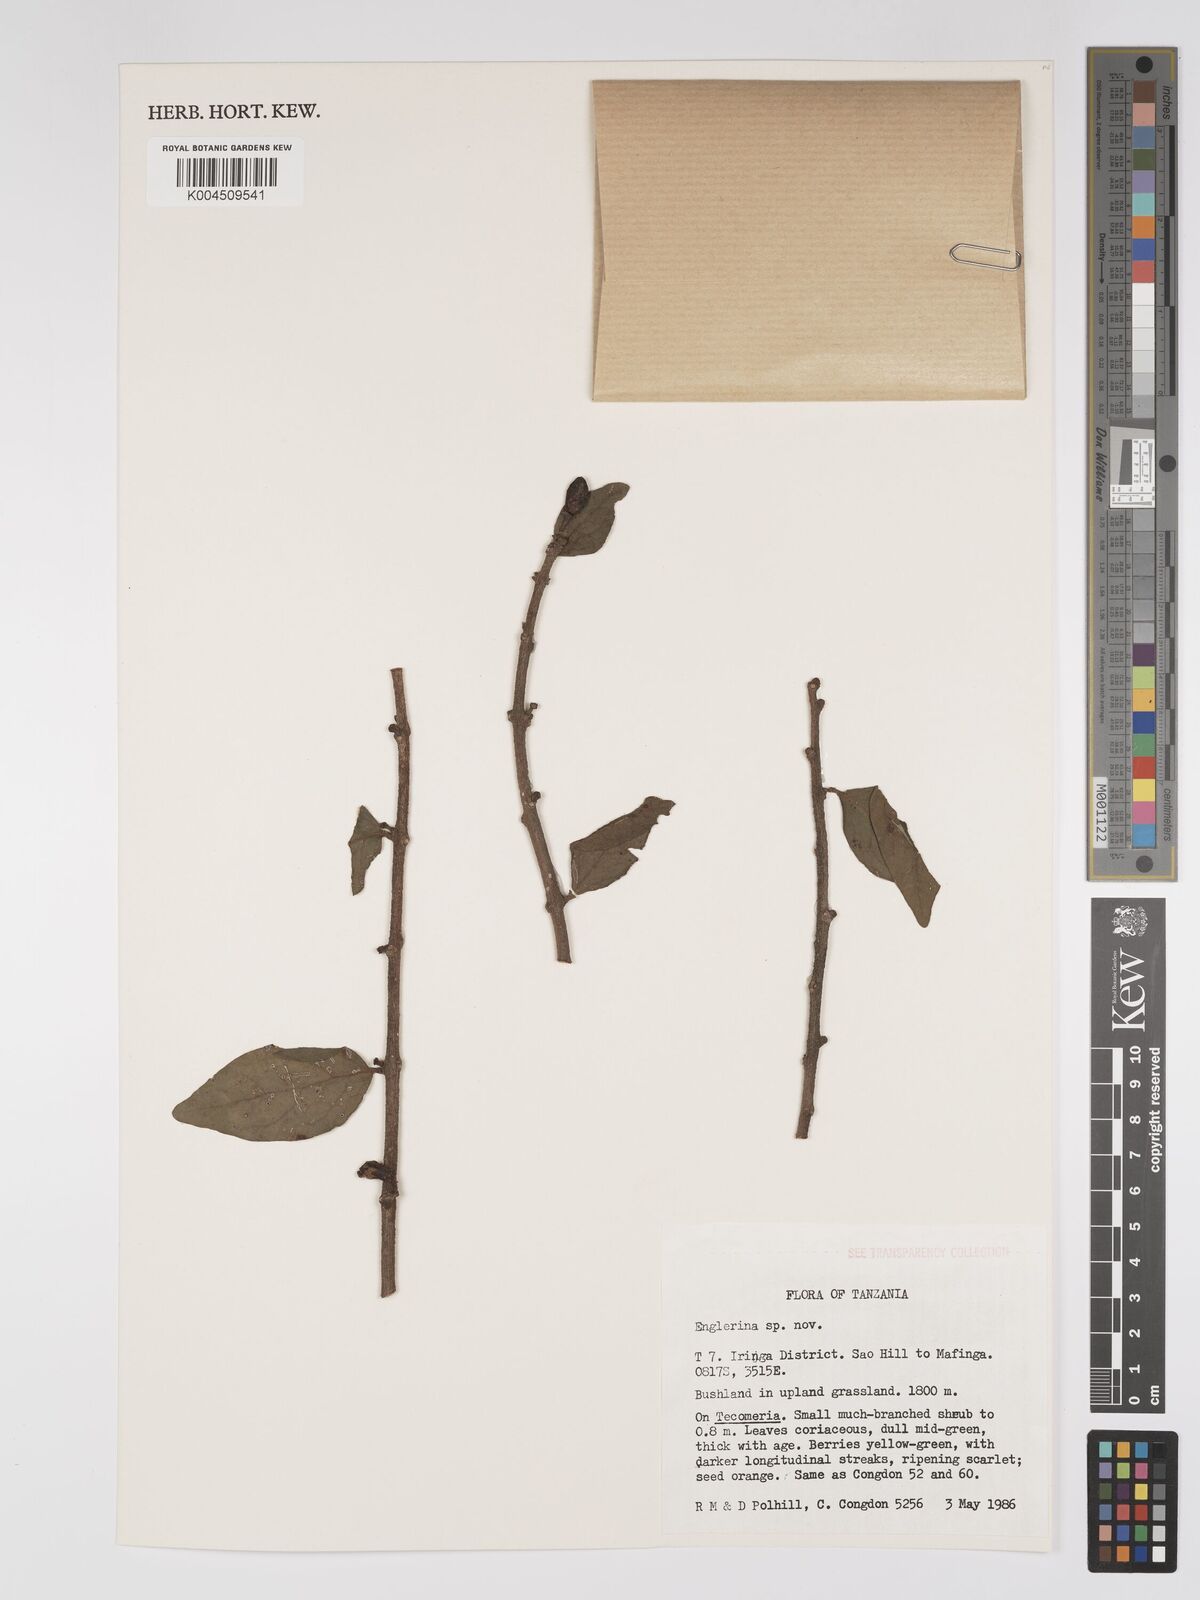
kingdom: Plantae
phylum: Tracheophyta
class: Magnoliopsida
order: Santalales
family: Loranthaceae
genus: Englerina
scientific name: Englerina inaequilatera
